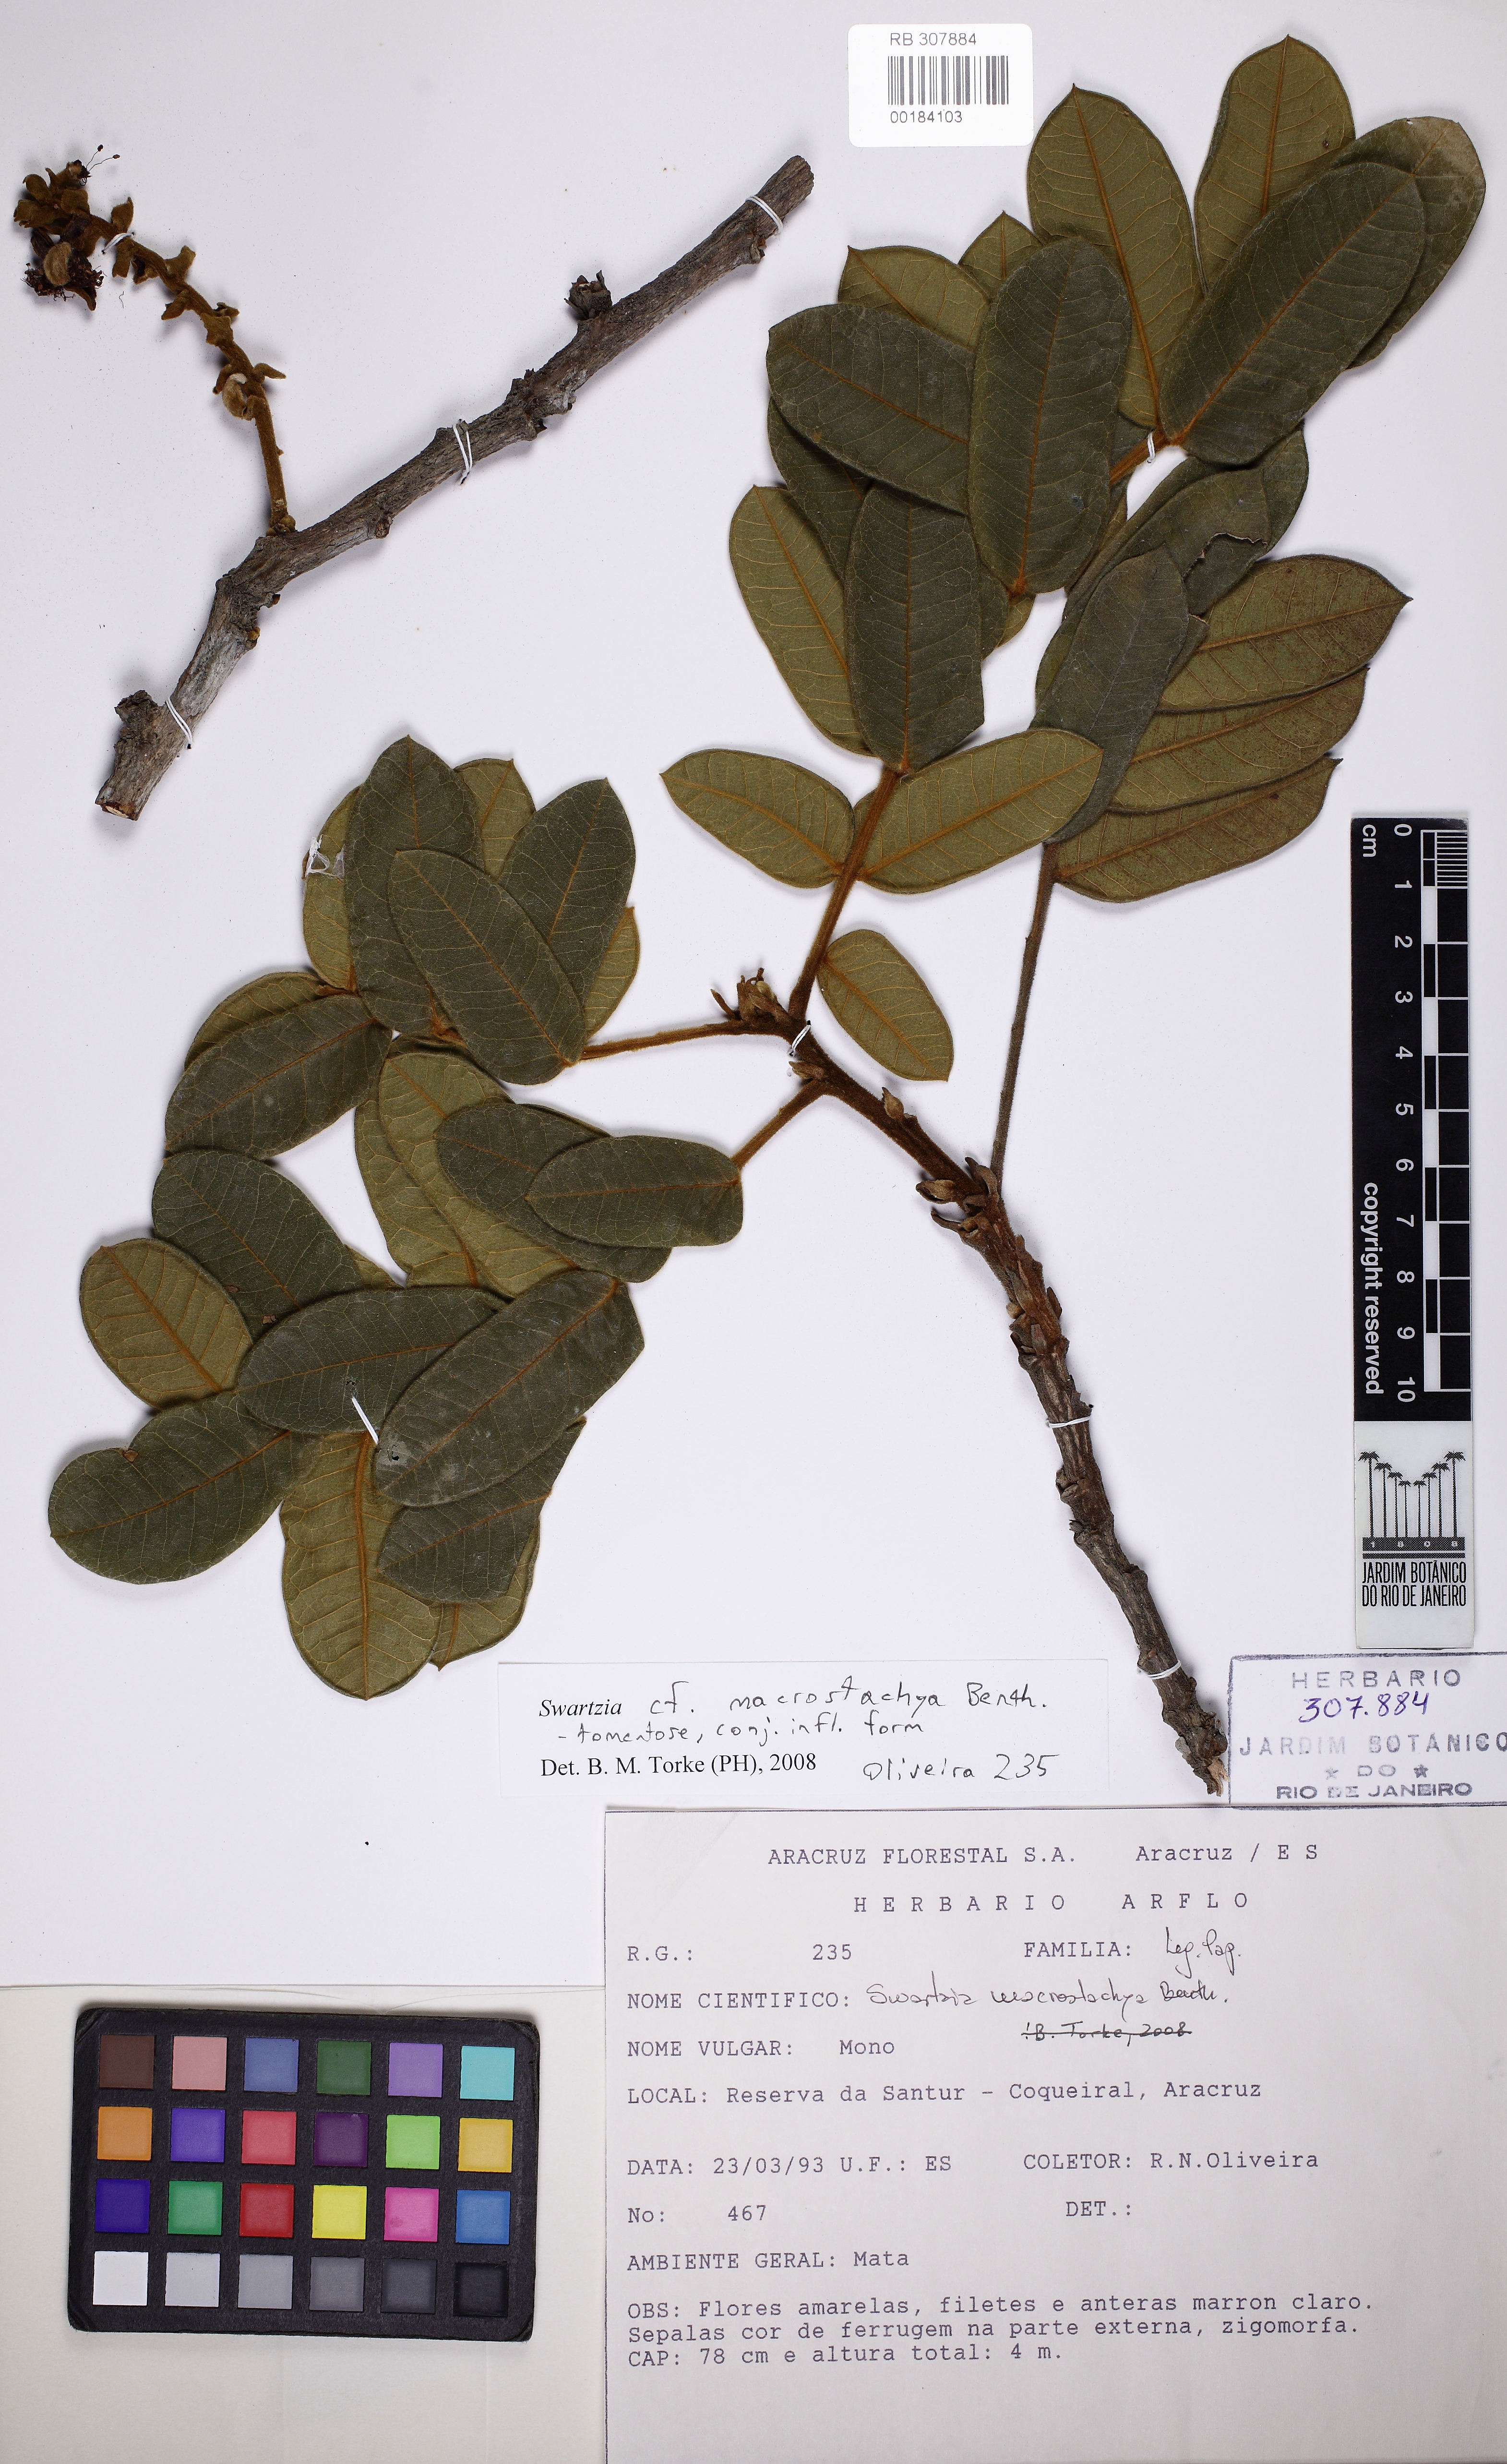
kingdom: Plantae
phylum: Tracheophyta
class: Magnoliopsida
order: Fabales
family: Fabaceae
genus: Swartzia
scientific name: Swartzia macrostachya
